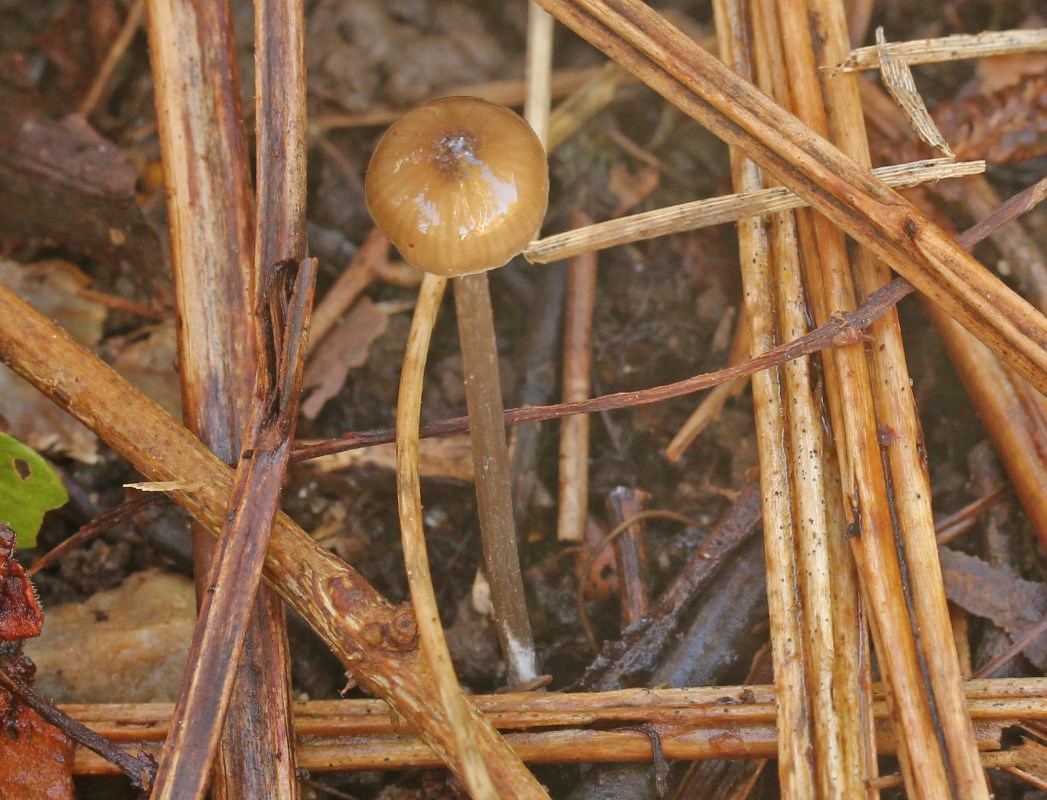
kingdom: Fungi
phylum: Basidiomycota
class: Agaricomycetes
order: Agaricales
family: Entolomataceae
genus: Entoloma
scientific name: Entoloma
